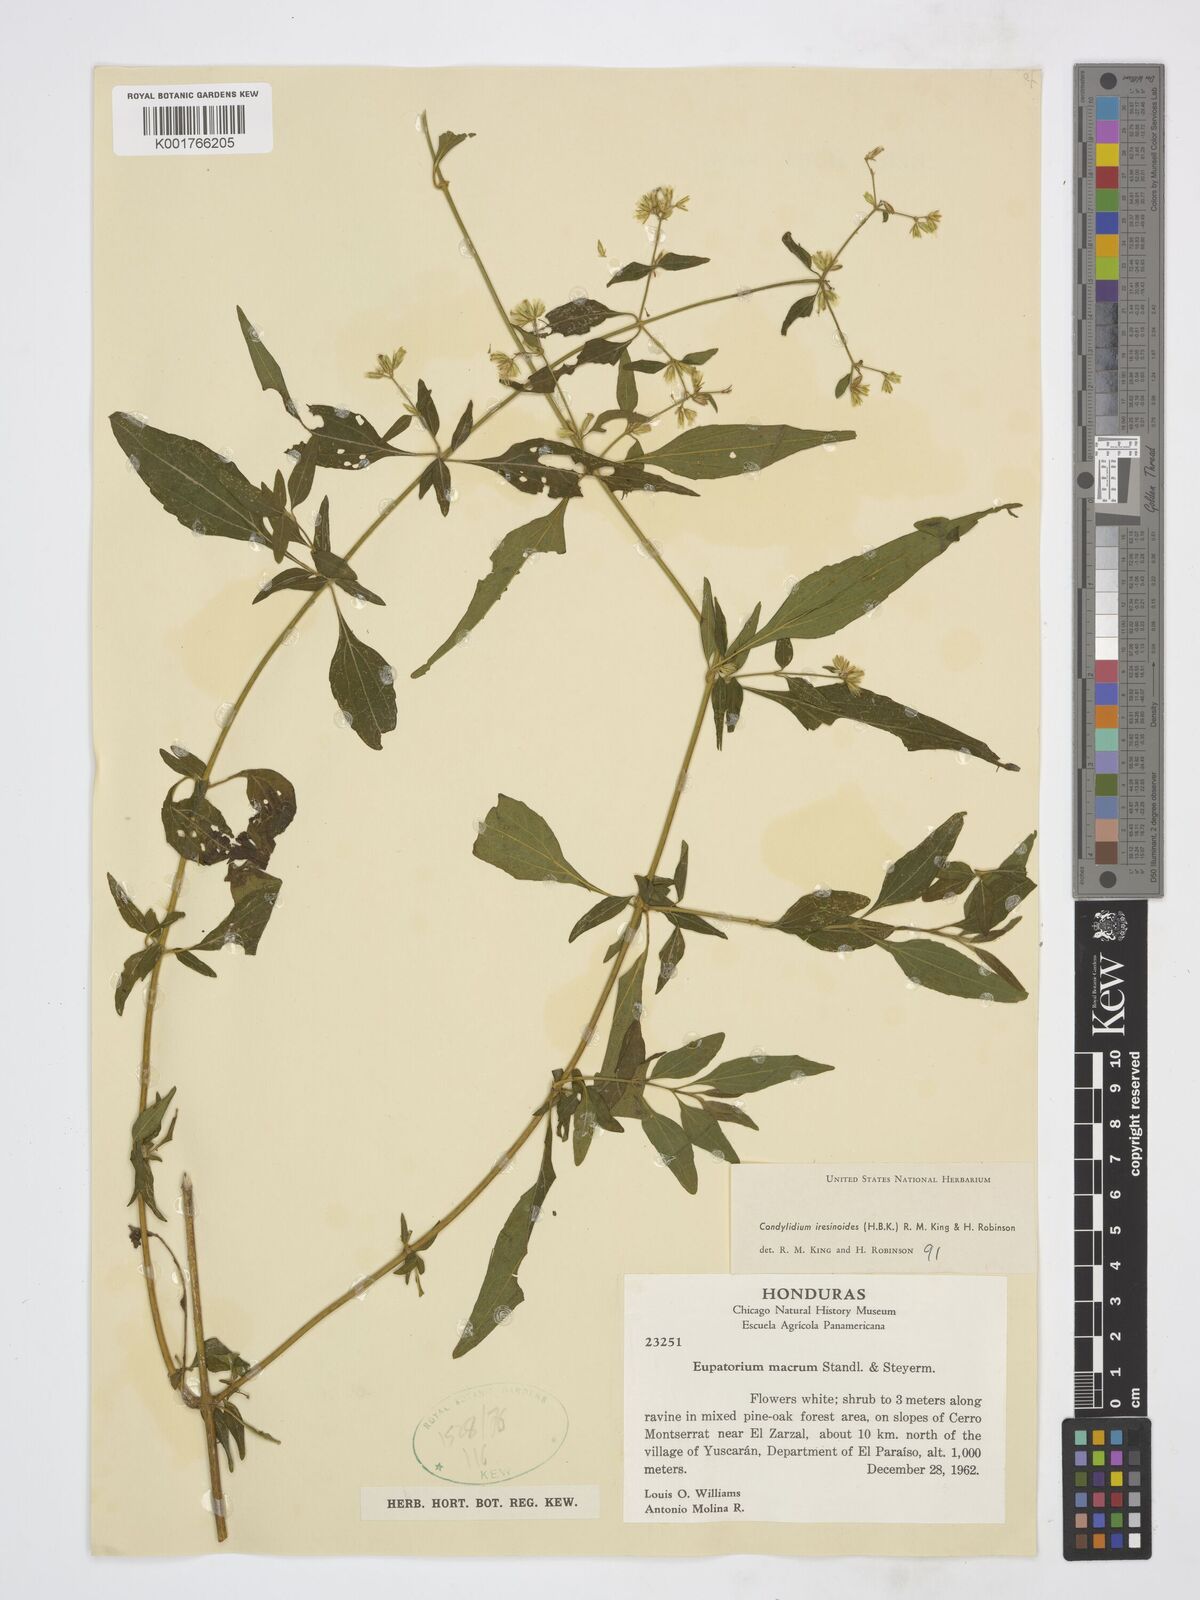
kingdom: Plantae
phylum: Tracheophyta
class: Magnoliopsida
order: Asterales
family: Asteraceae
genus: Condylidium
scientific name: Condylidium iresinoides
